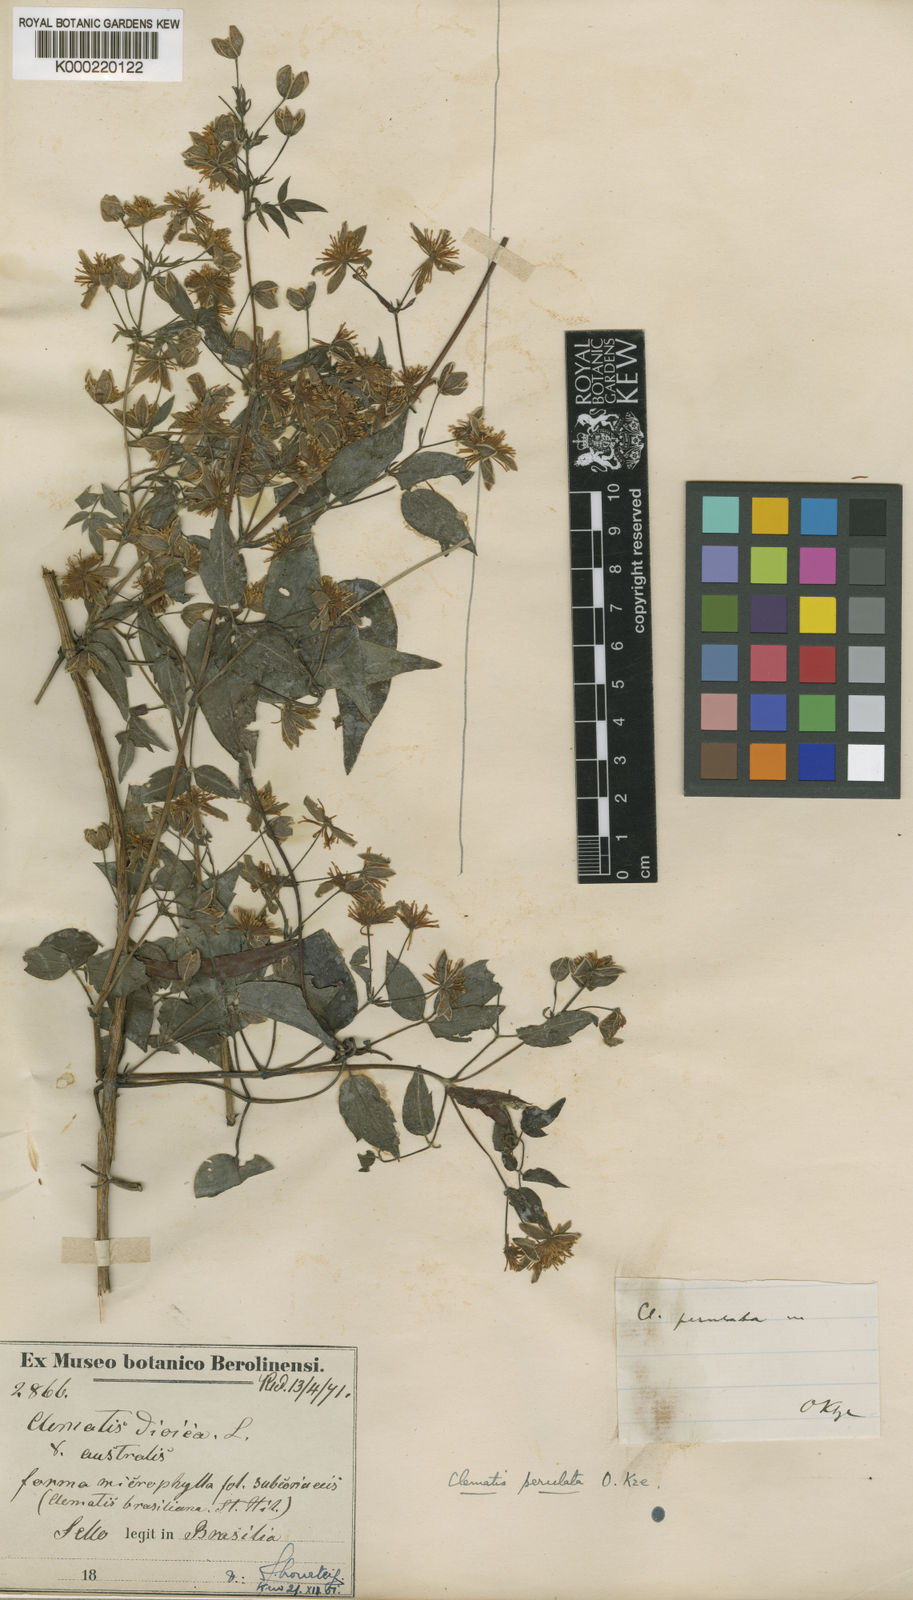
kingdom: Plantae
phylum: Tracheophyta
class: Magnoliopsida
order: Ranunculales
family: Ranunculaceae
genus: Clematis
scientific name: Clematis acapulcensis
